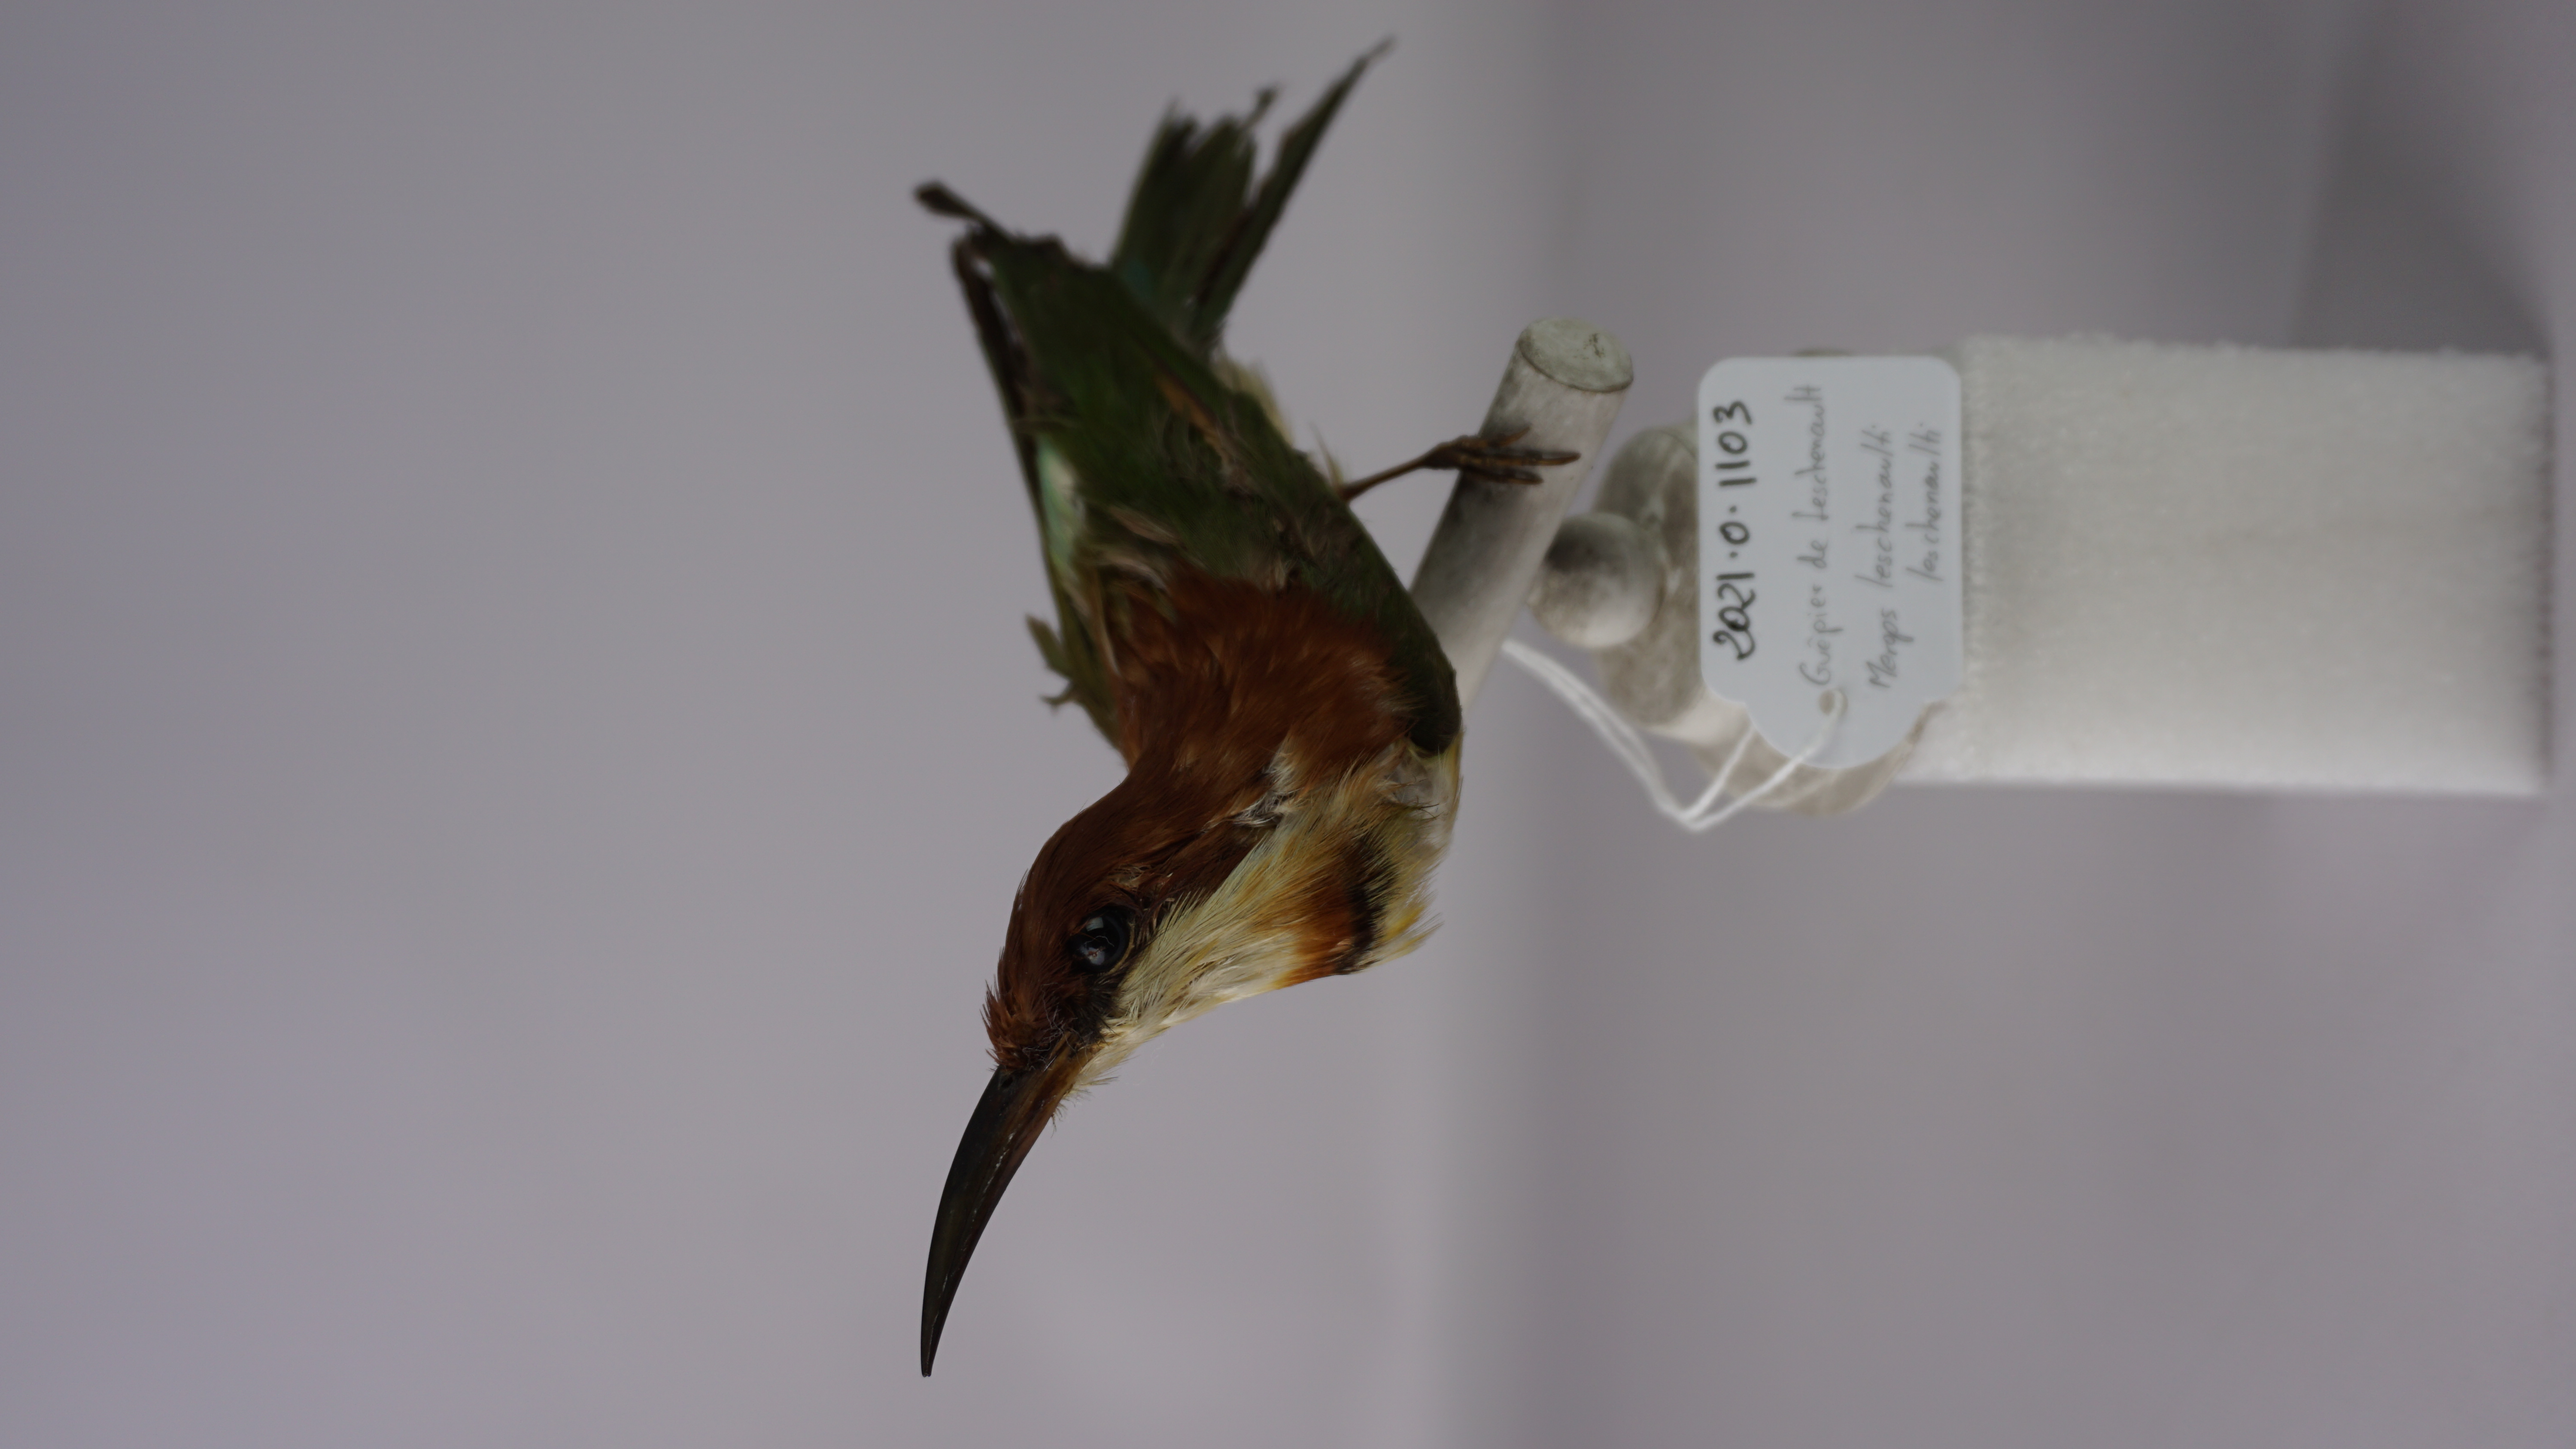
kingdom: Animalia
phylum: Chordata
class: Aves
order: Coraciiformes
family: Meropidae
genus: Merops
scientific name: Merops leschenaulti
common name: Chestnut-headed bee-eater
